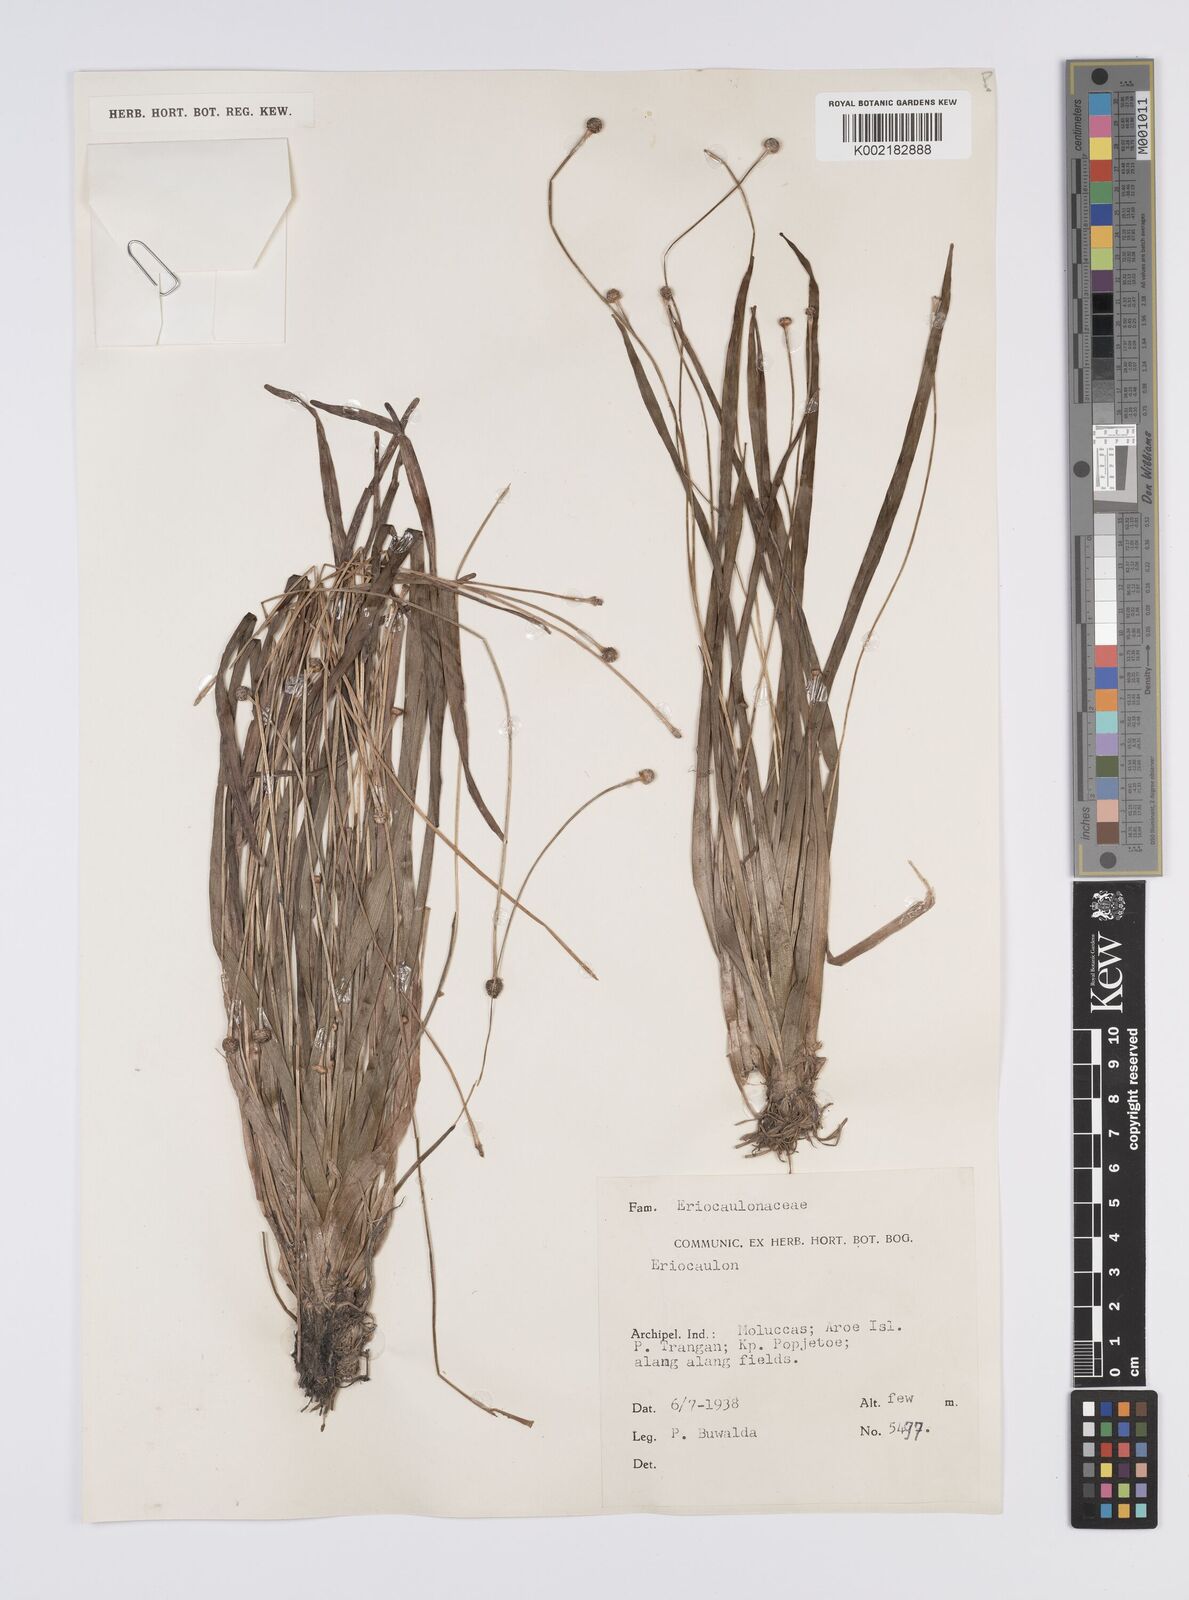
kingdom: Plantae
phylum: Tracheophyta
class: Liliopsida
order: Poales
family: Eriocaulaceae
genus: Eriocaulon
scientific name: Eriocaulon
